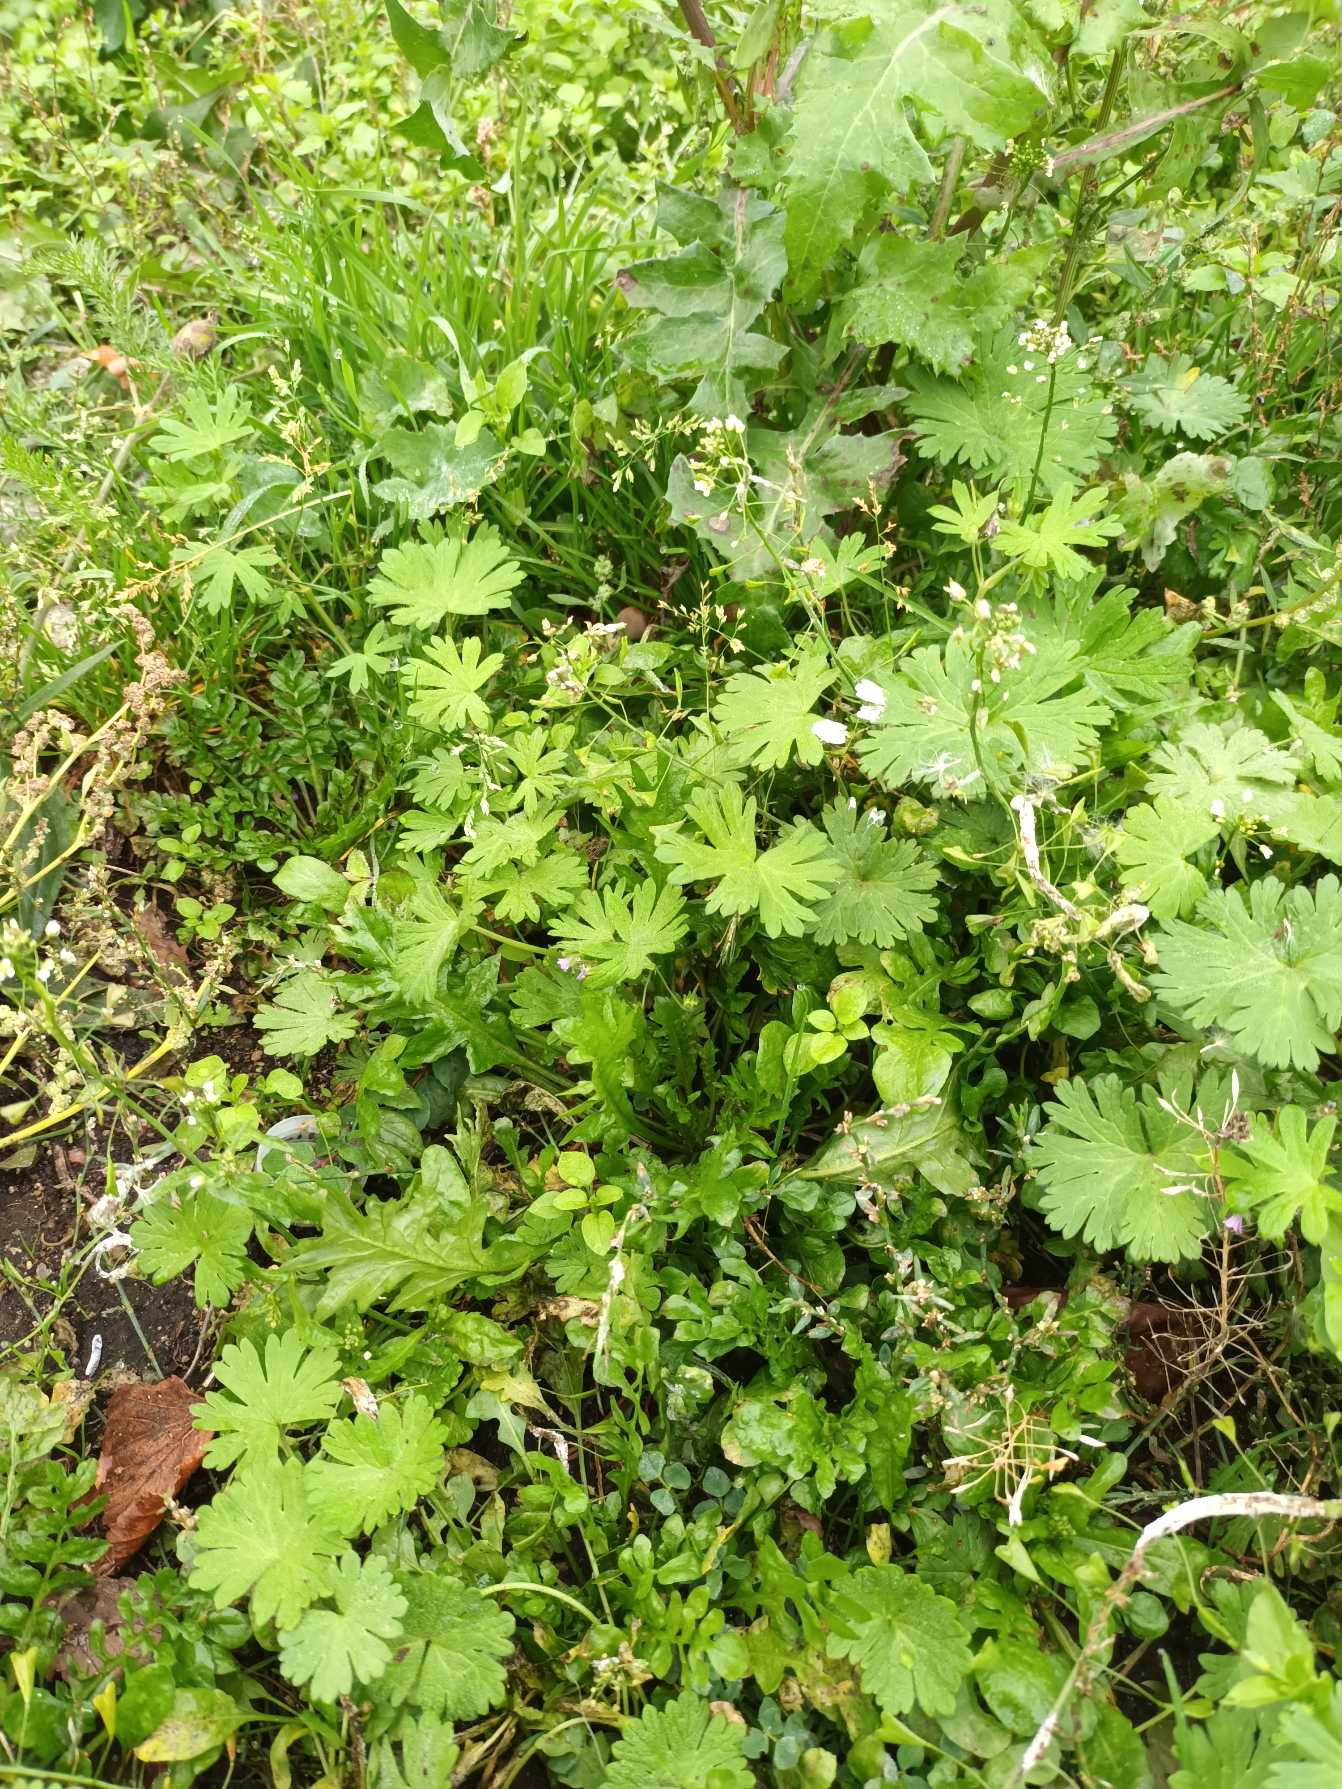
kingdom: Plantae
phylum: Tracheophyta
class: Magnoliopsida
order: Geraniales
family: Geraniaceae
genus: Geranium
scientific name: Geranium pusillum
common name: Liden storkenæb
